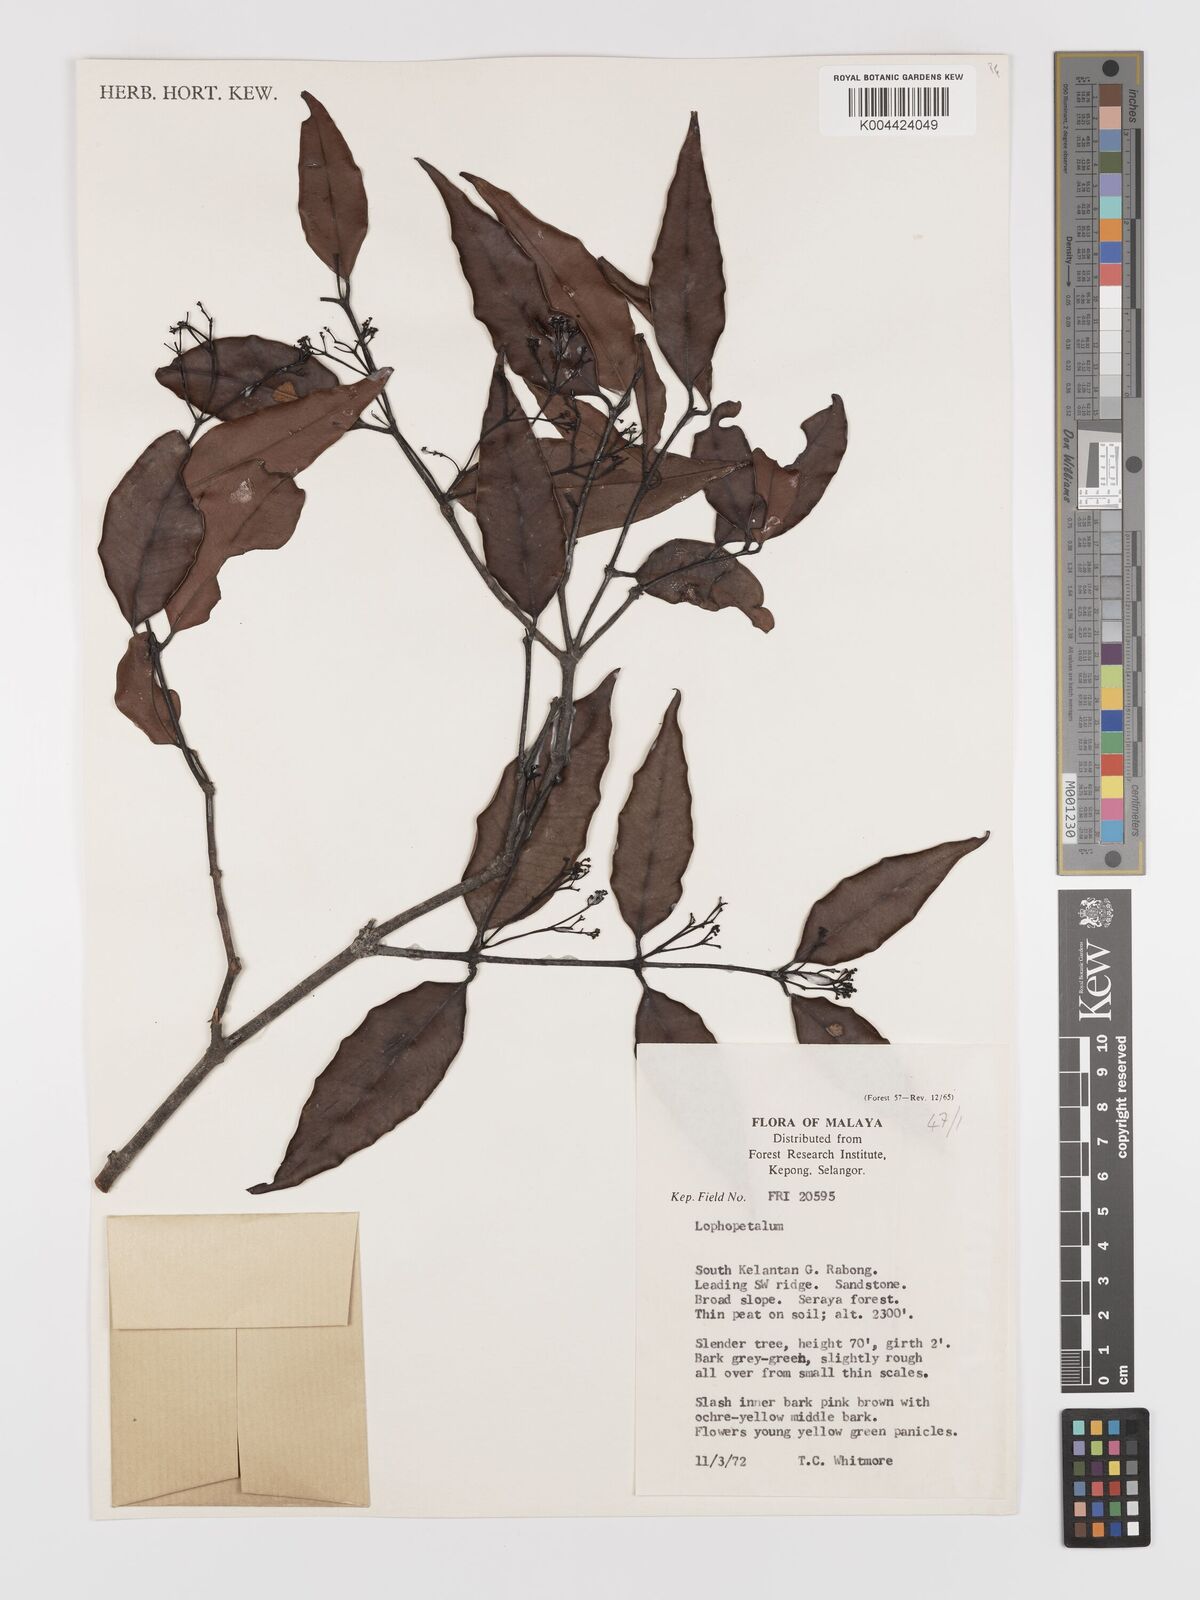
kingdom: Plantae
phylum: Tracheophyta
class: Magnoliopsida
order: Celastrales
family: Celastraceae
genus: Lophopetalum
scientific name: Lophopetalum
